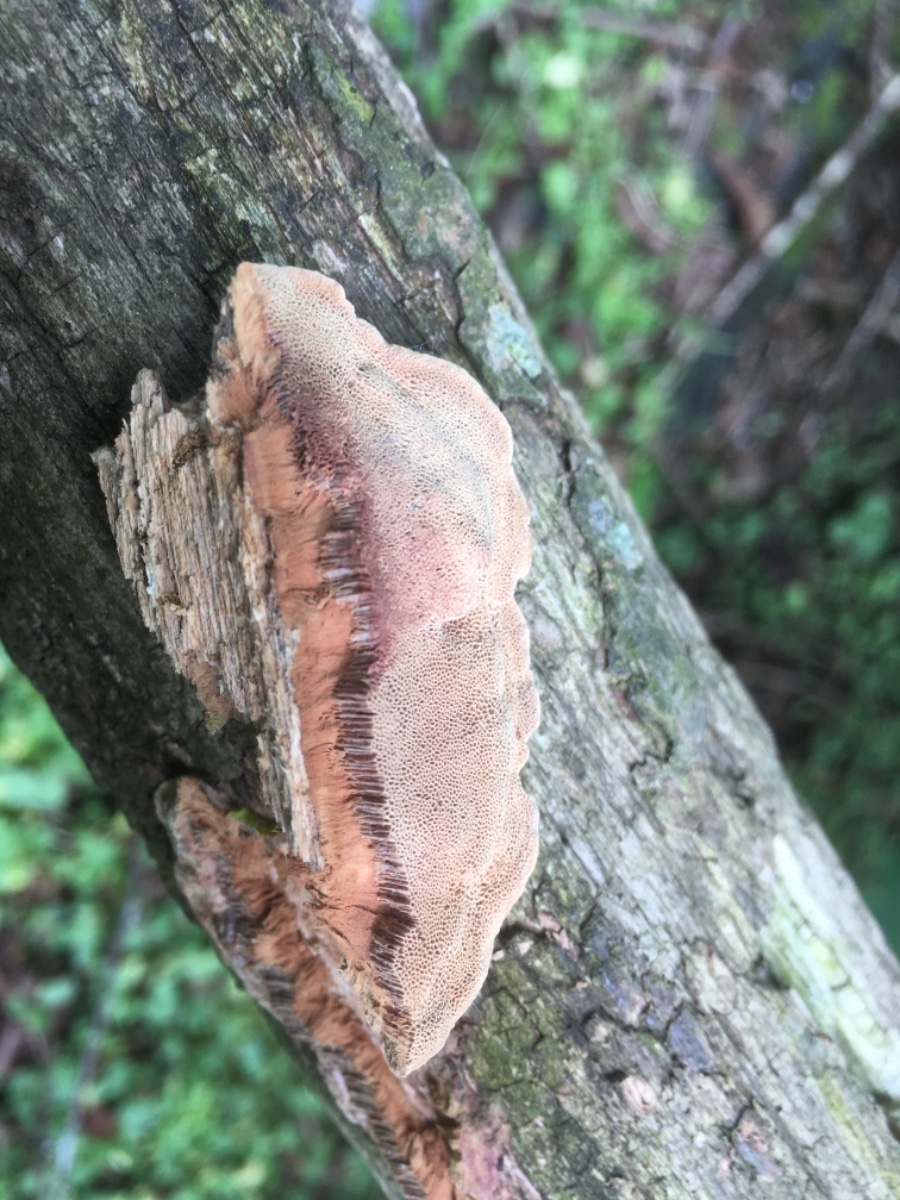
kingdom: Fungi
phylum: Basidiomycota
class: Agaricomycetes
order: Polyporales
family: Phanerochaetaceae
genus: Hapalopilus
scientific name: Hapalopilus rutilans
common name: rødlig okkerporesvamp
